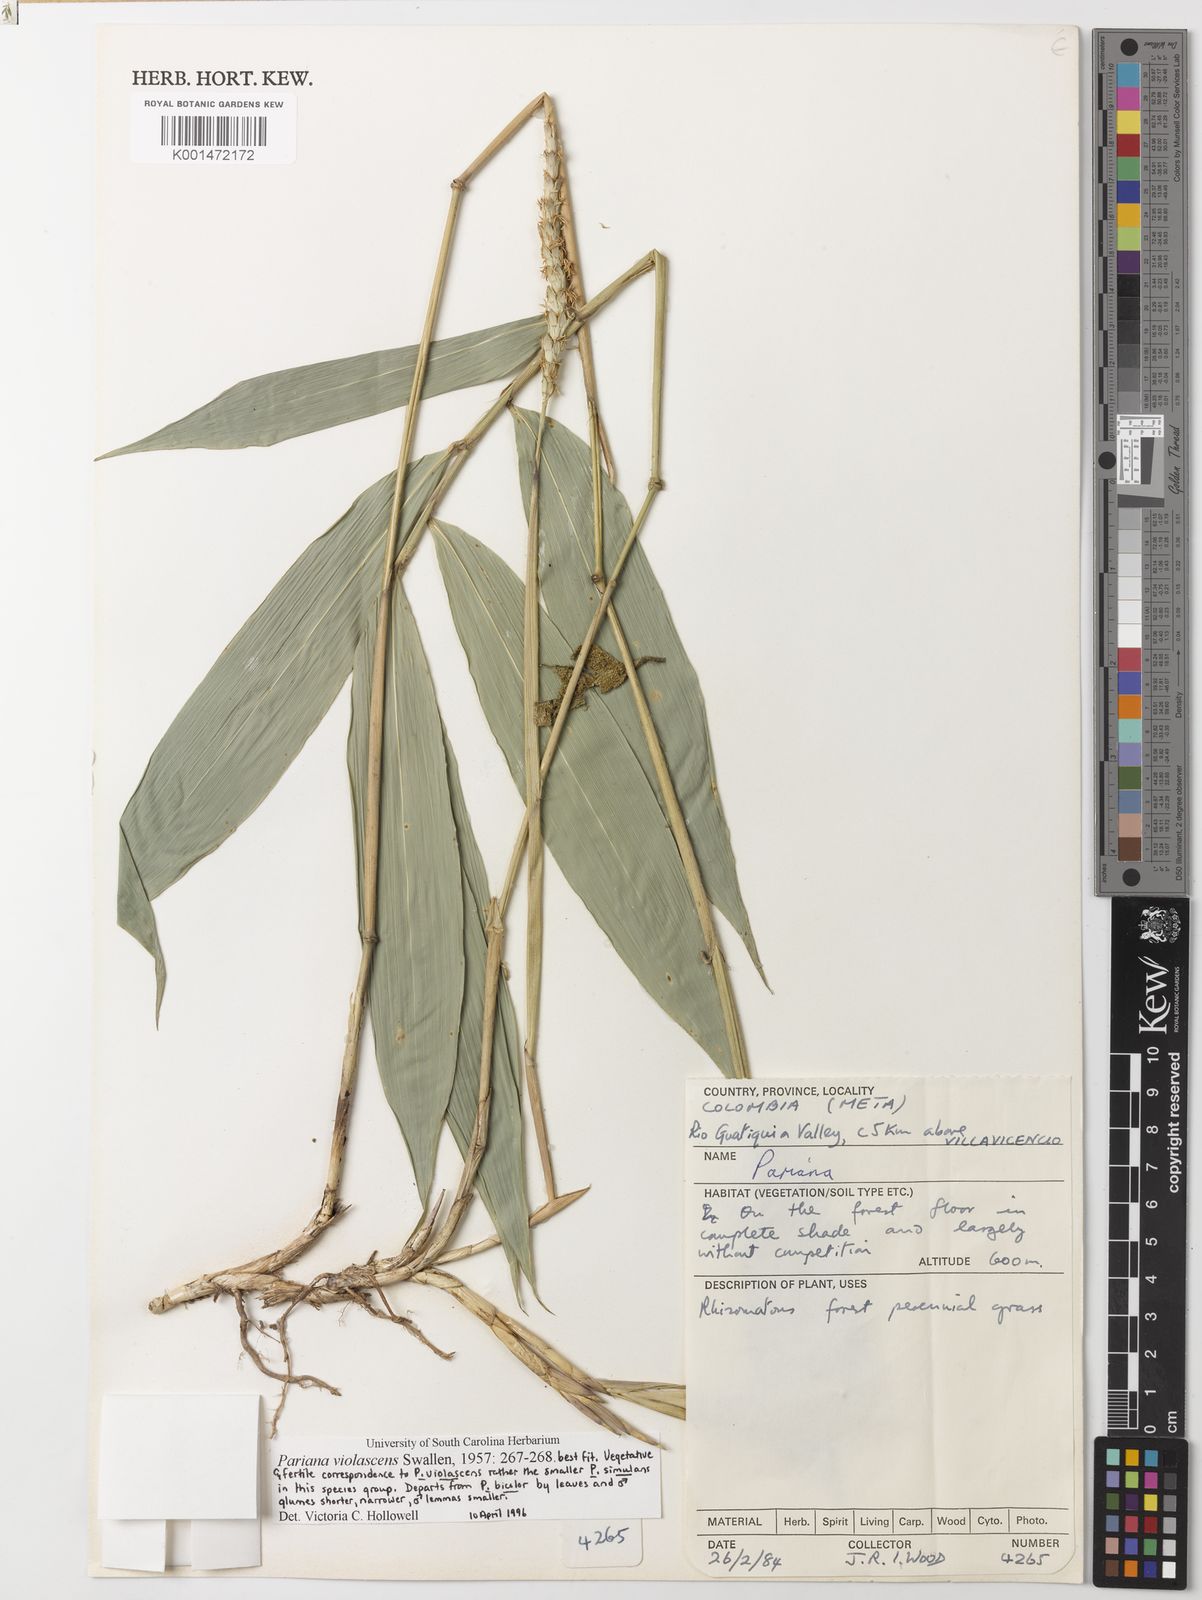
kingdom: Plantae
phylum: Tracheophyta
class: Liliopsida
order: Poales
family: Poaceae
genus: Pariana
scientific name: Pariana simulans
